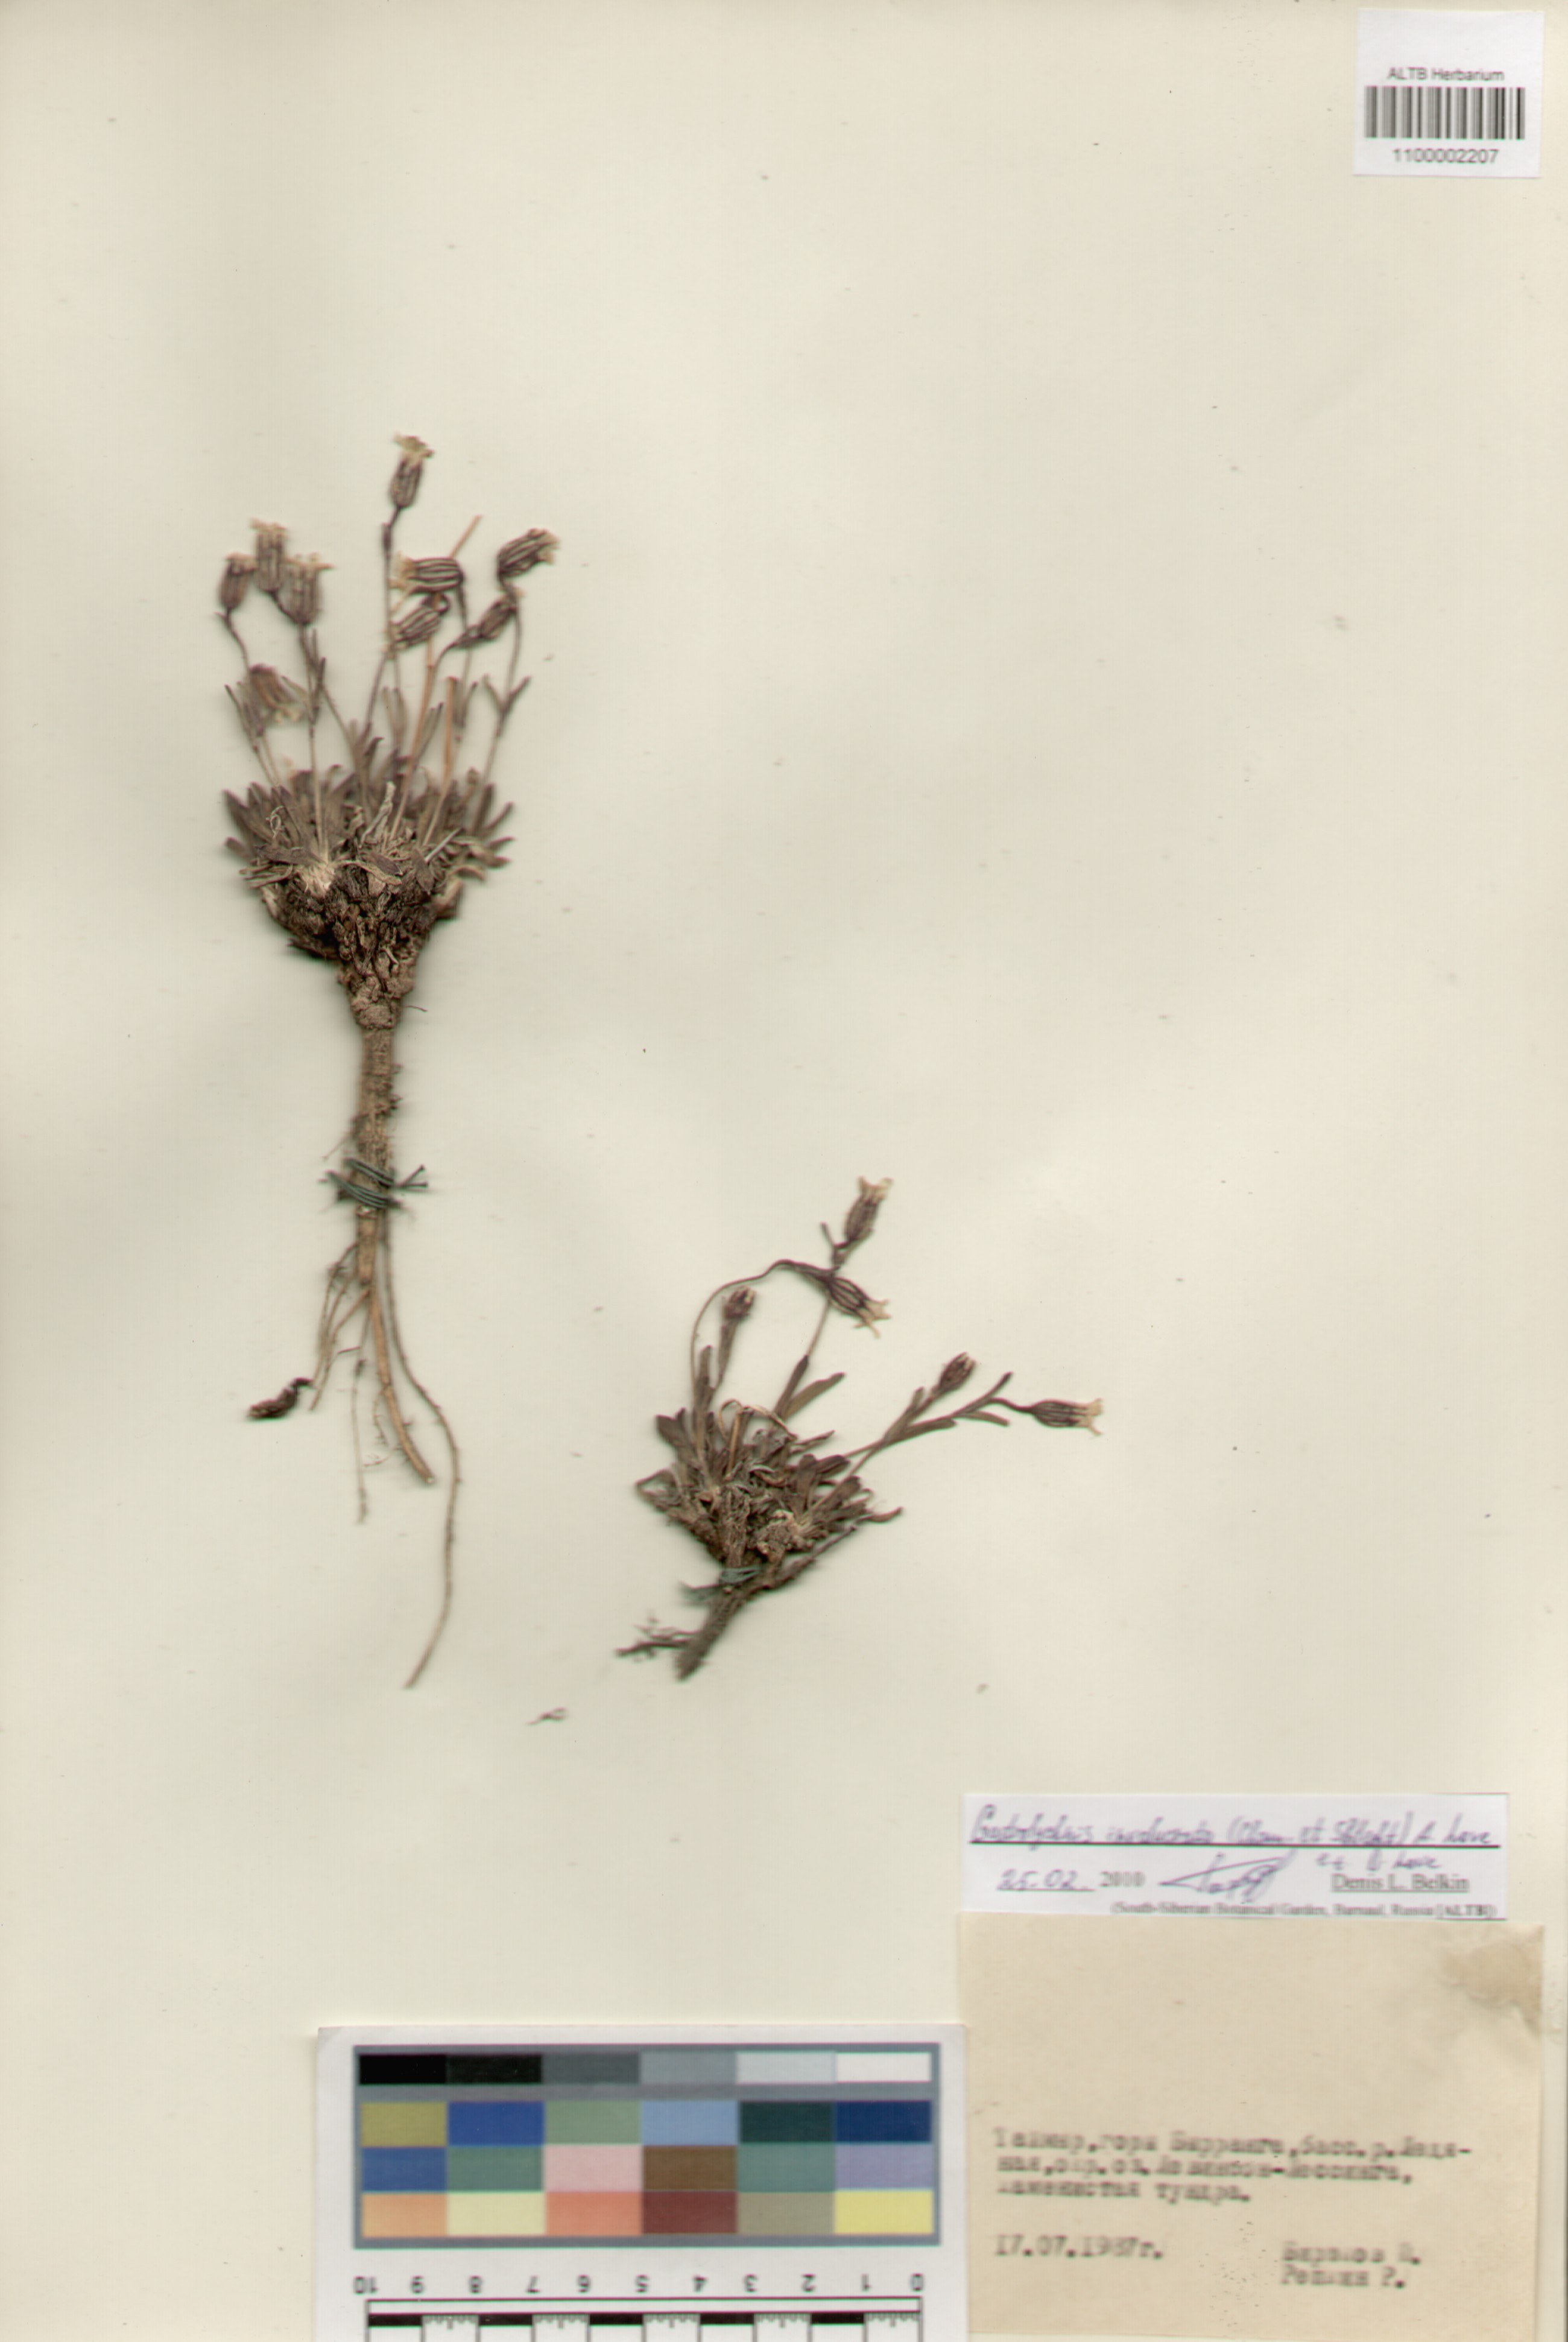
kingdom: Plantae
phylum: Tracheophyta
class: Magnoliopsida
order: Caryophyllales
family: Caryophyllaceae
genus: Silene
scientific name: Silene involucrata
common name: Greater arctic campion
